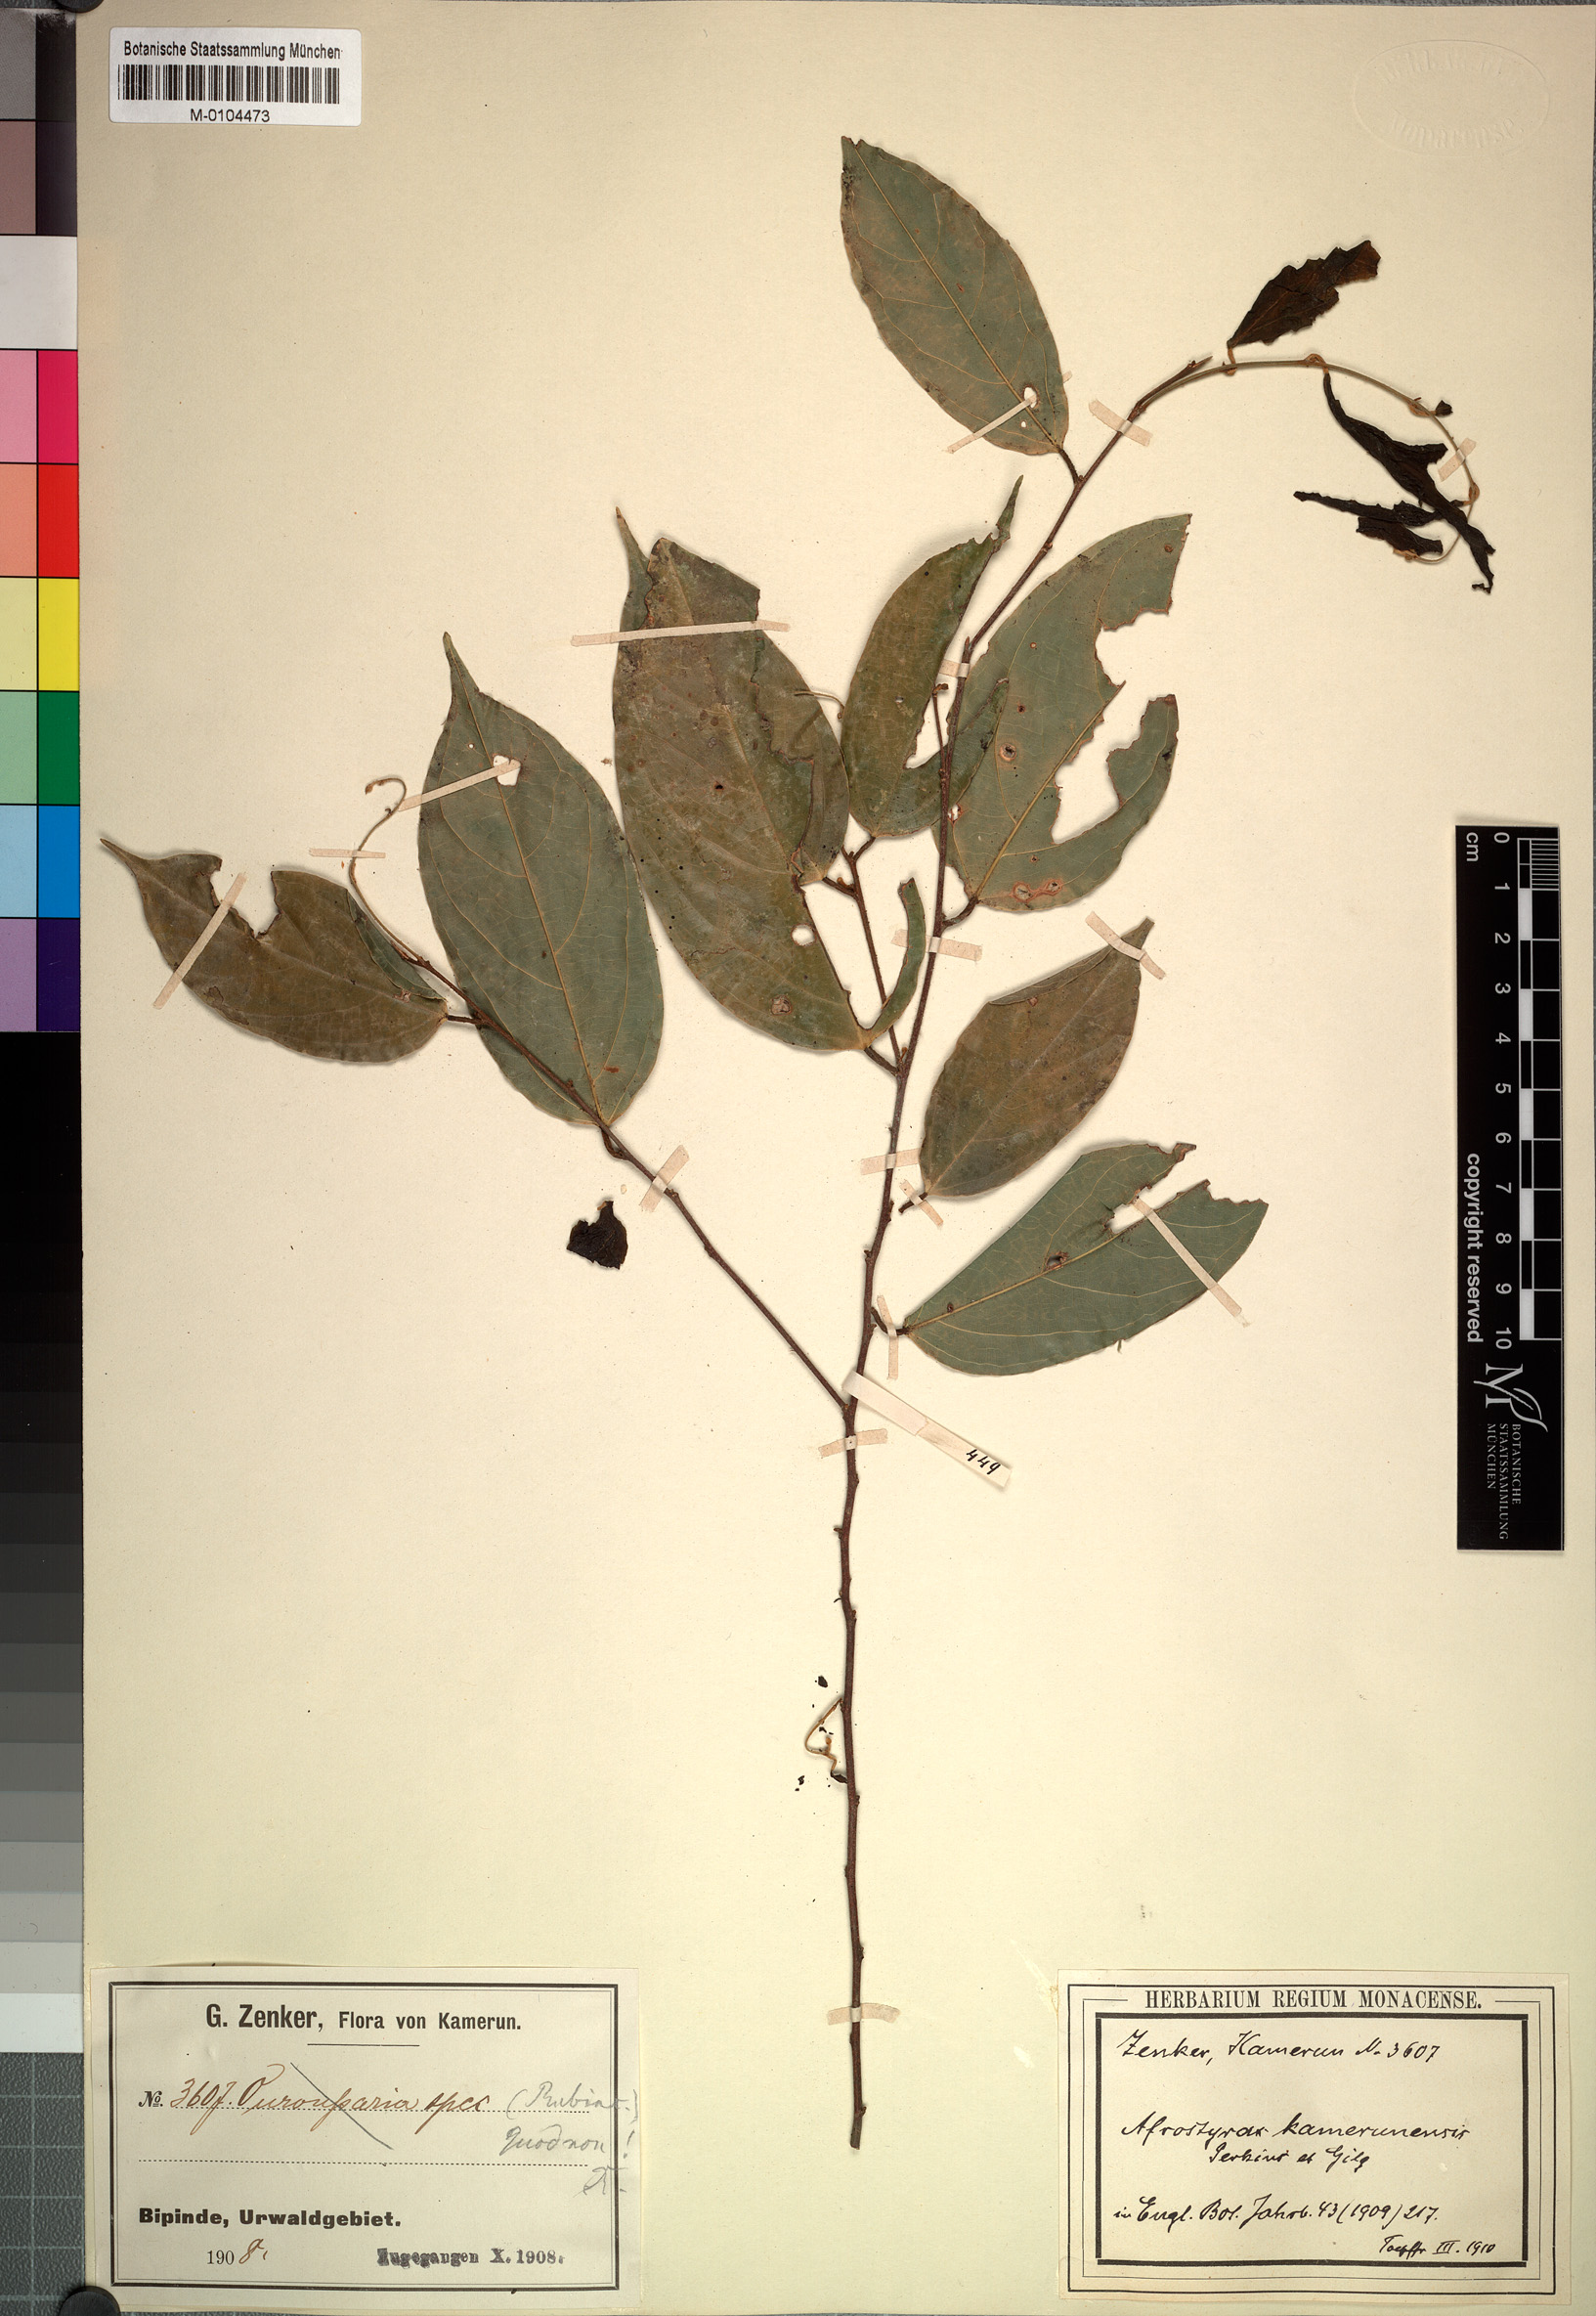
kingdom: Plantae
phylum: Tracheophyta
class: Magnoliopsida
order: Oxalidales
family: Huaceae
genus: Afrostyrax
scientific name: Afrostyrax kamerunensis
